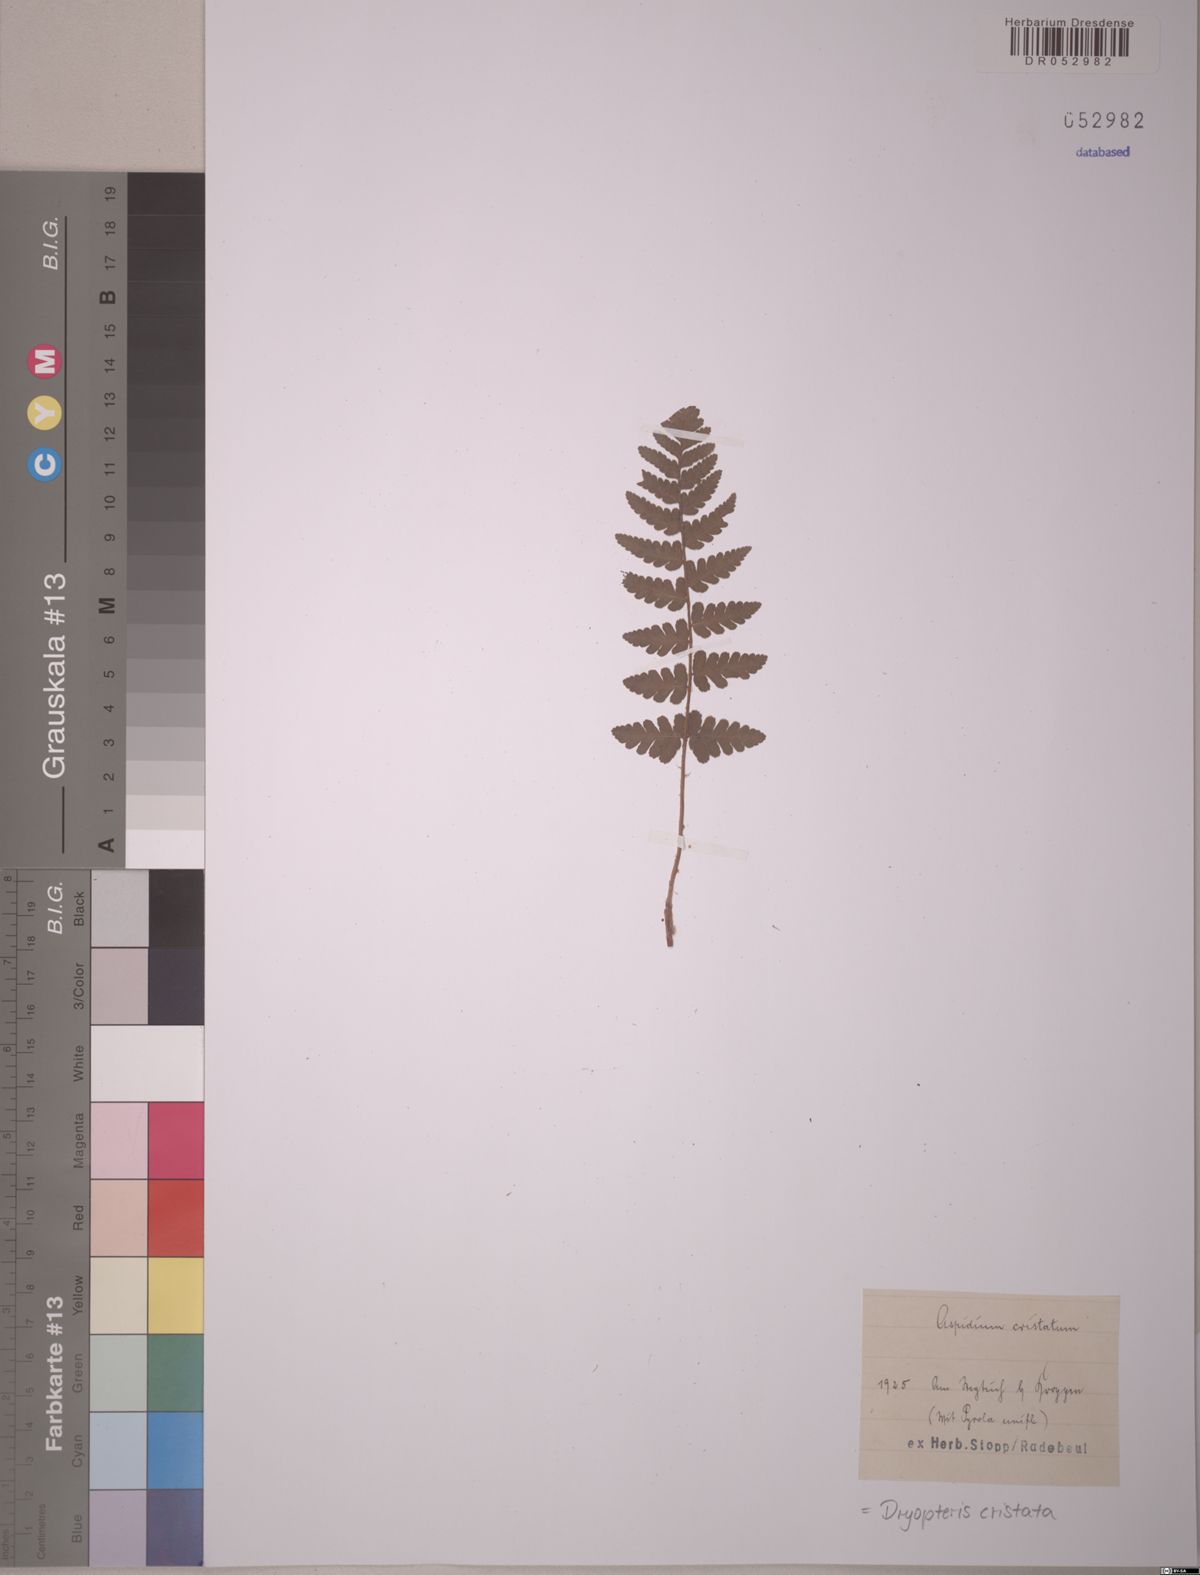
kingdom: Plantae
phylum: Tracheophyta
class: Polypodiopsida
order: Polypodiales
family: Dryopteridaceae
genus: Dryopteris
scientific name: Dryopteris cristata
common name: Crested wood fern
